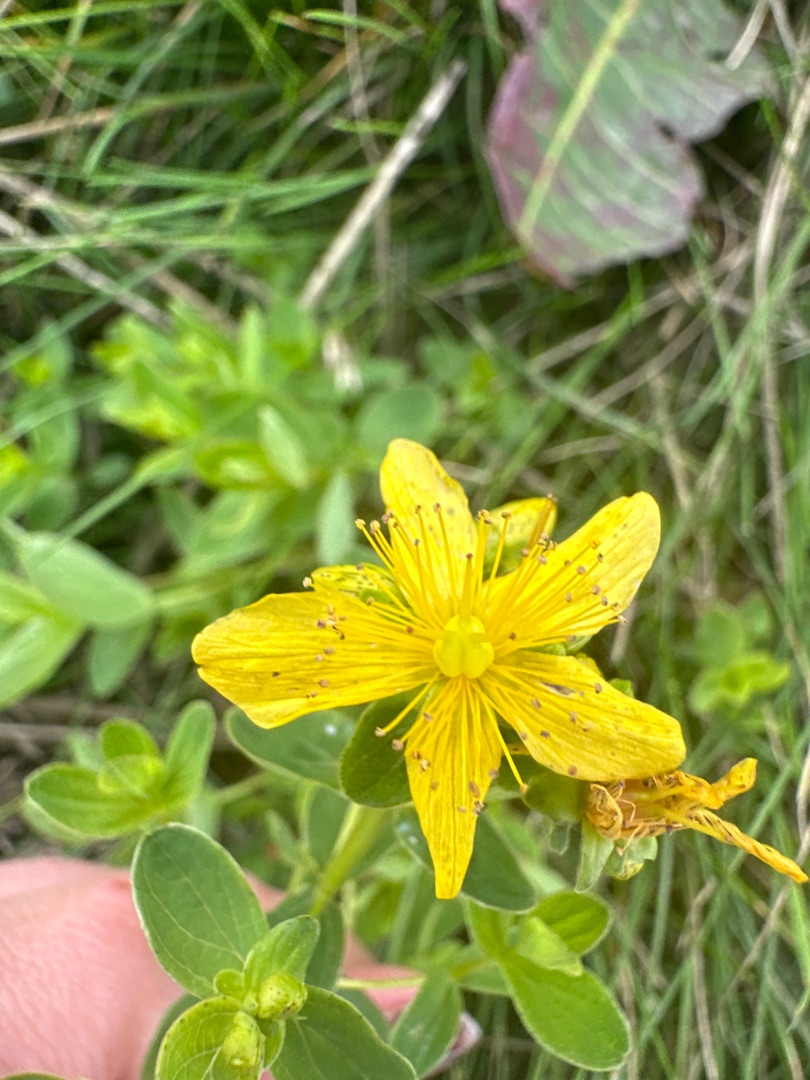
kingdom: Plantae
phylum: Tracheophyta
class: Magnoliopsida
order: Malpighiales
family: Hypericaceae
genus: Hypericum
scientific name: Hypericum maculatum
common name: Kantet perikon
